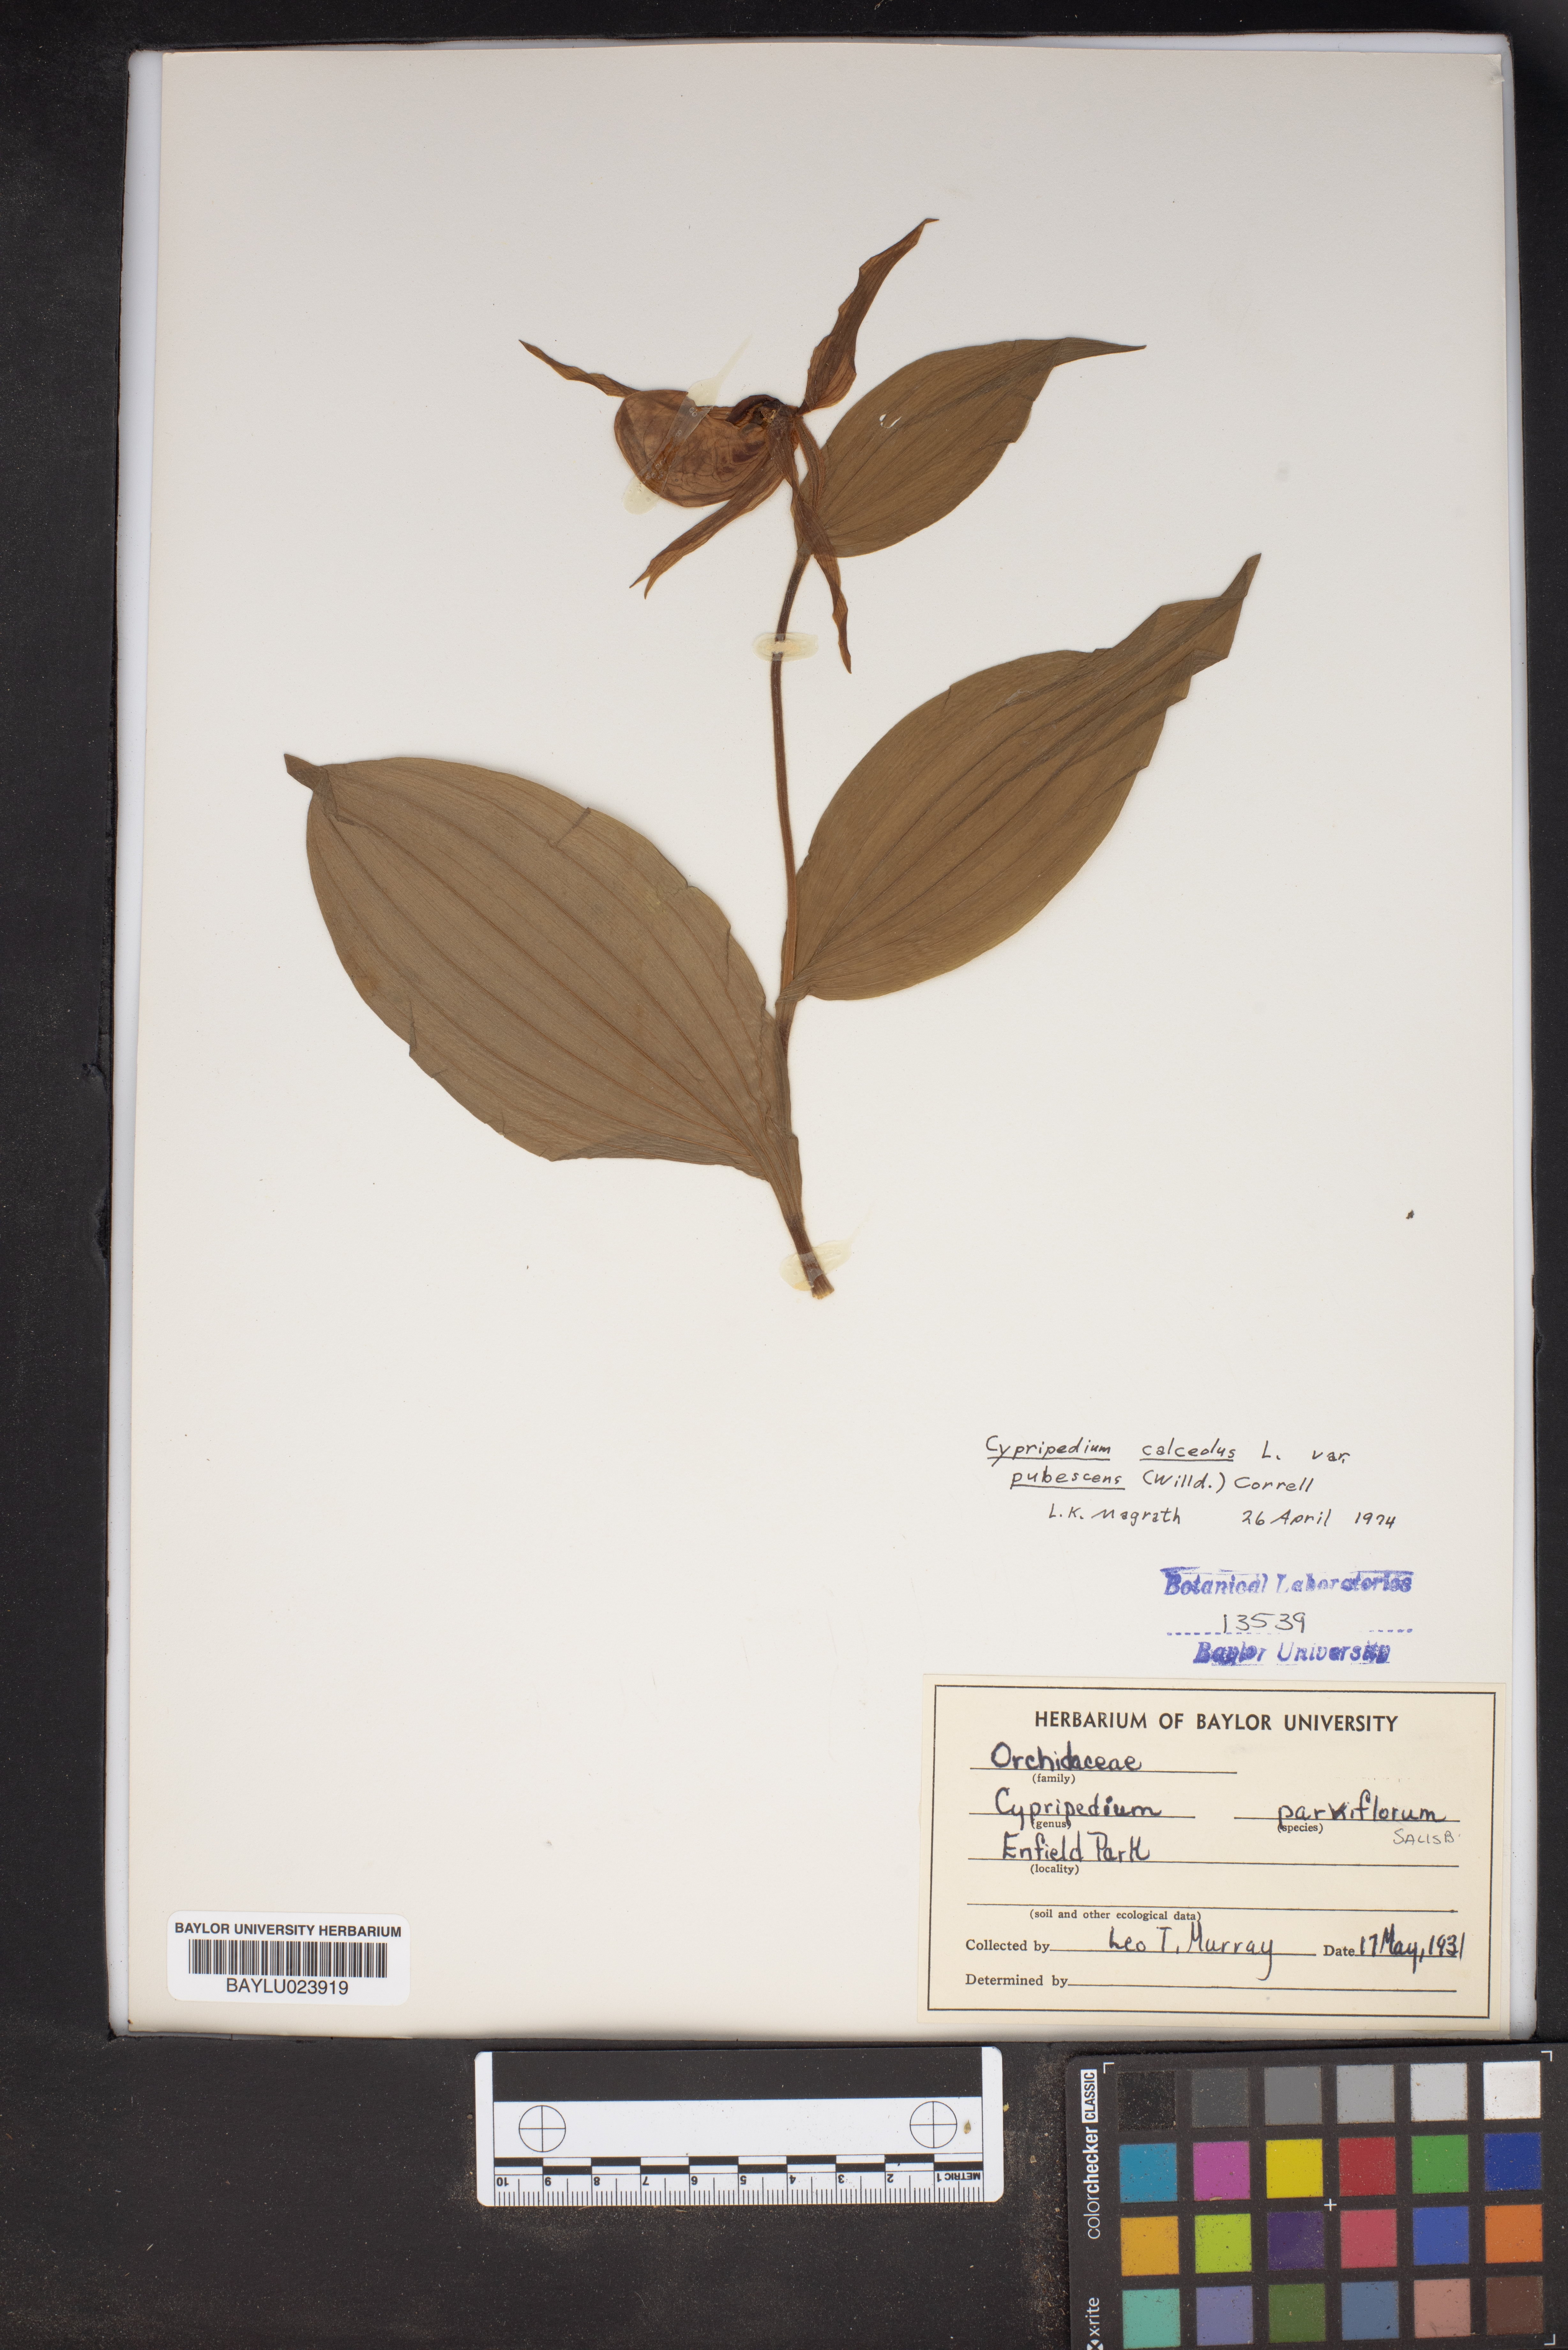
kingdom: Plantae
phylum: Tracheophyta
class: Liliopsida
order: Asparagales
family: Orchidaceae
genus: Cypripedium
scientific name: Cypripedium parviflorum
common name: American yellow lady's-slipper
